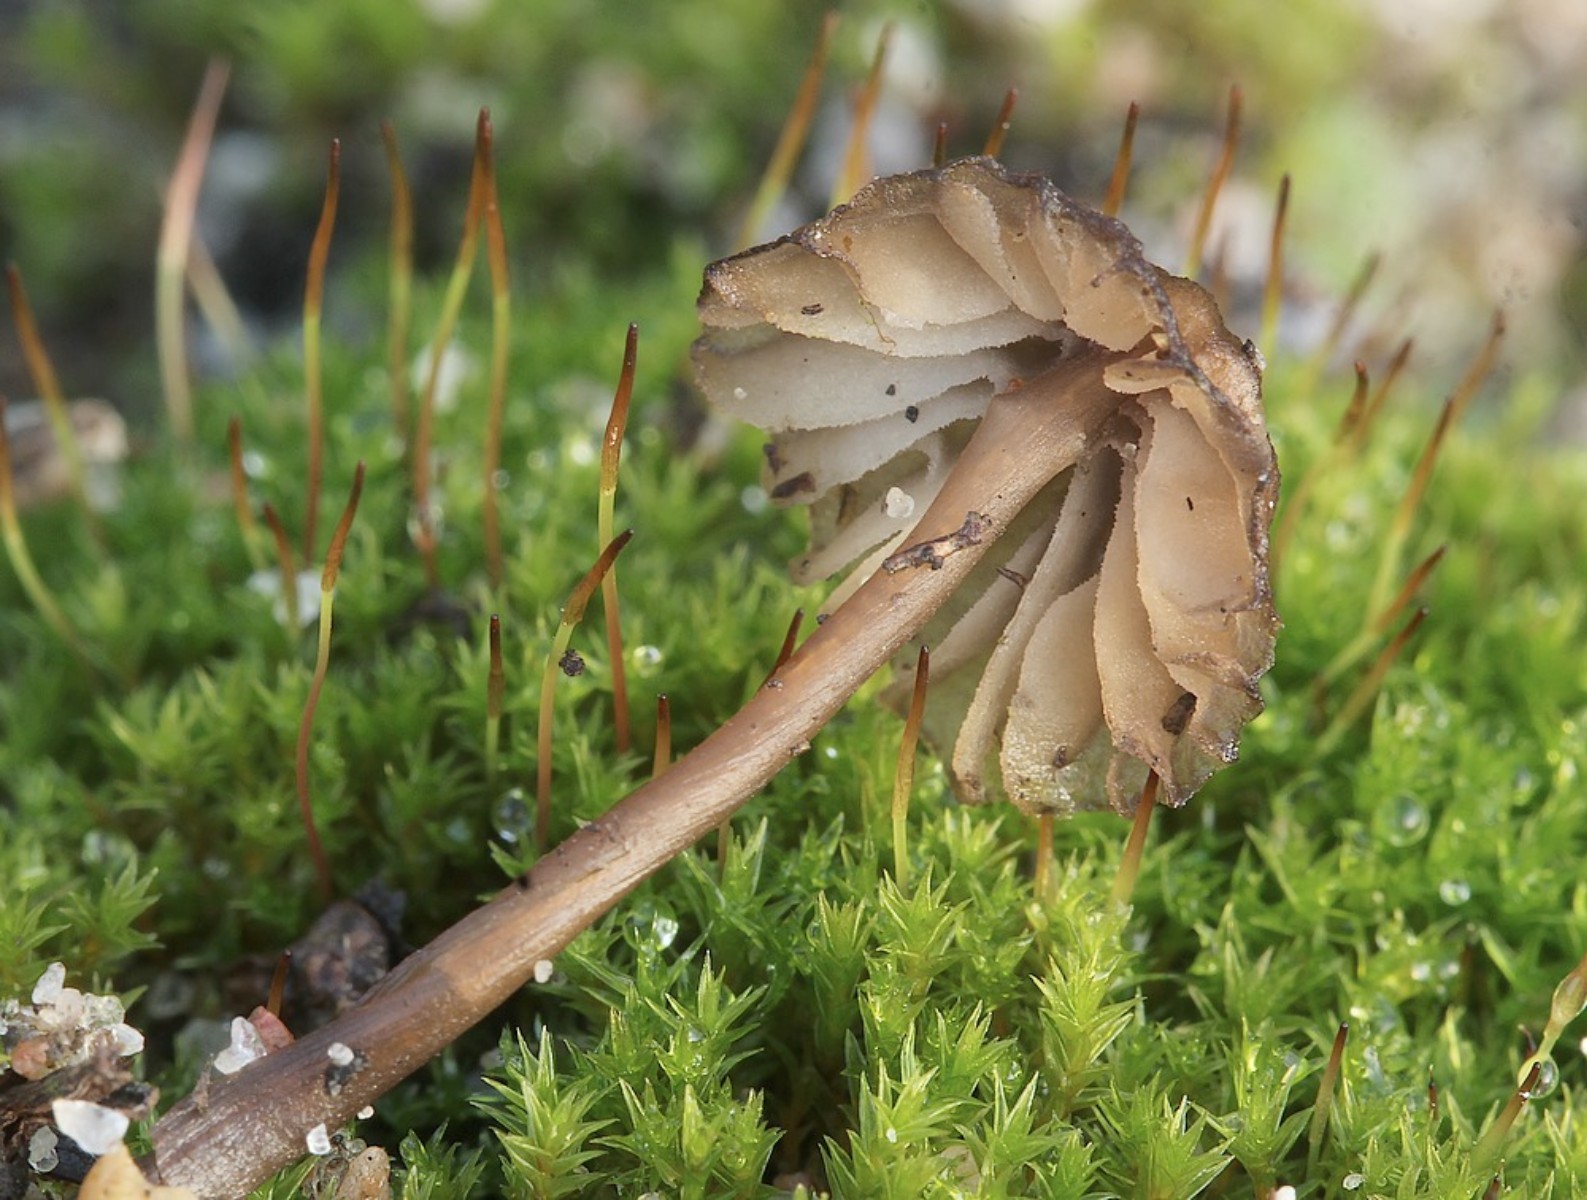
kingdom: Fungi
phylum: Basidiomycota
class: Agaricomycetes
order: Agaricales
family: Mycenaceae
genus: Mycena
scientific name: Mycena
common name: huesvamp
